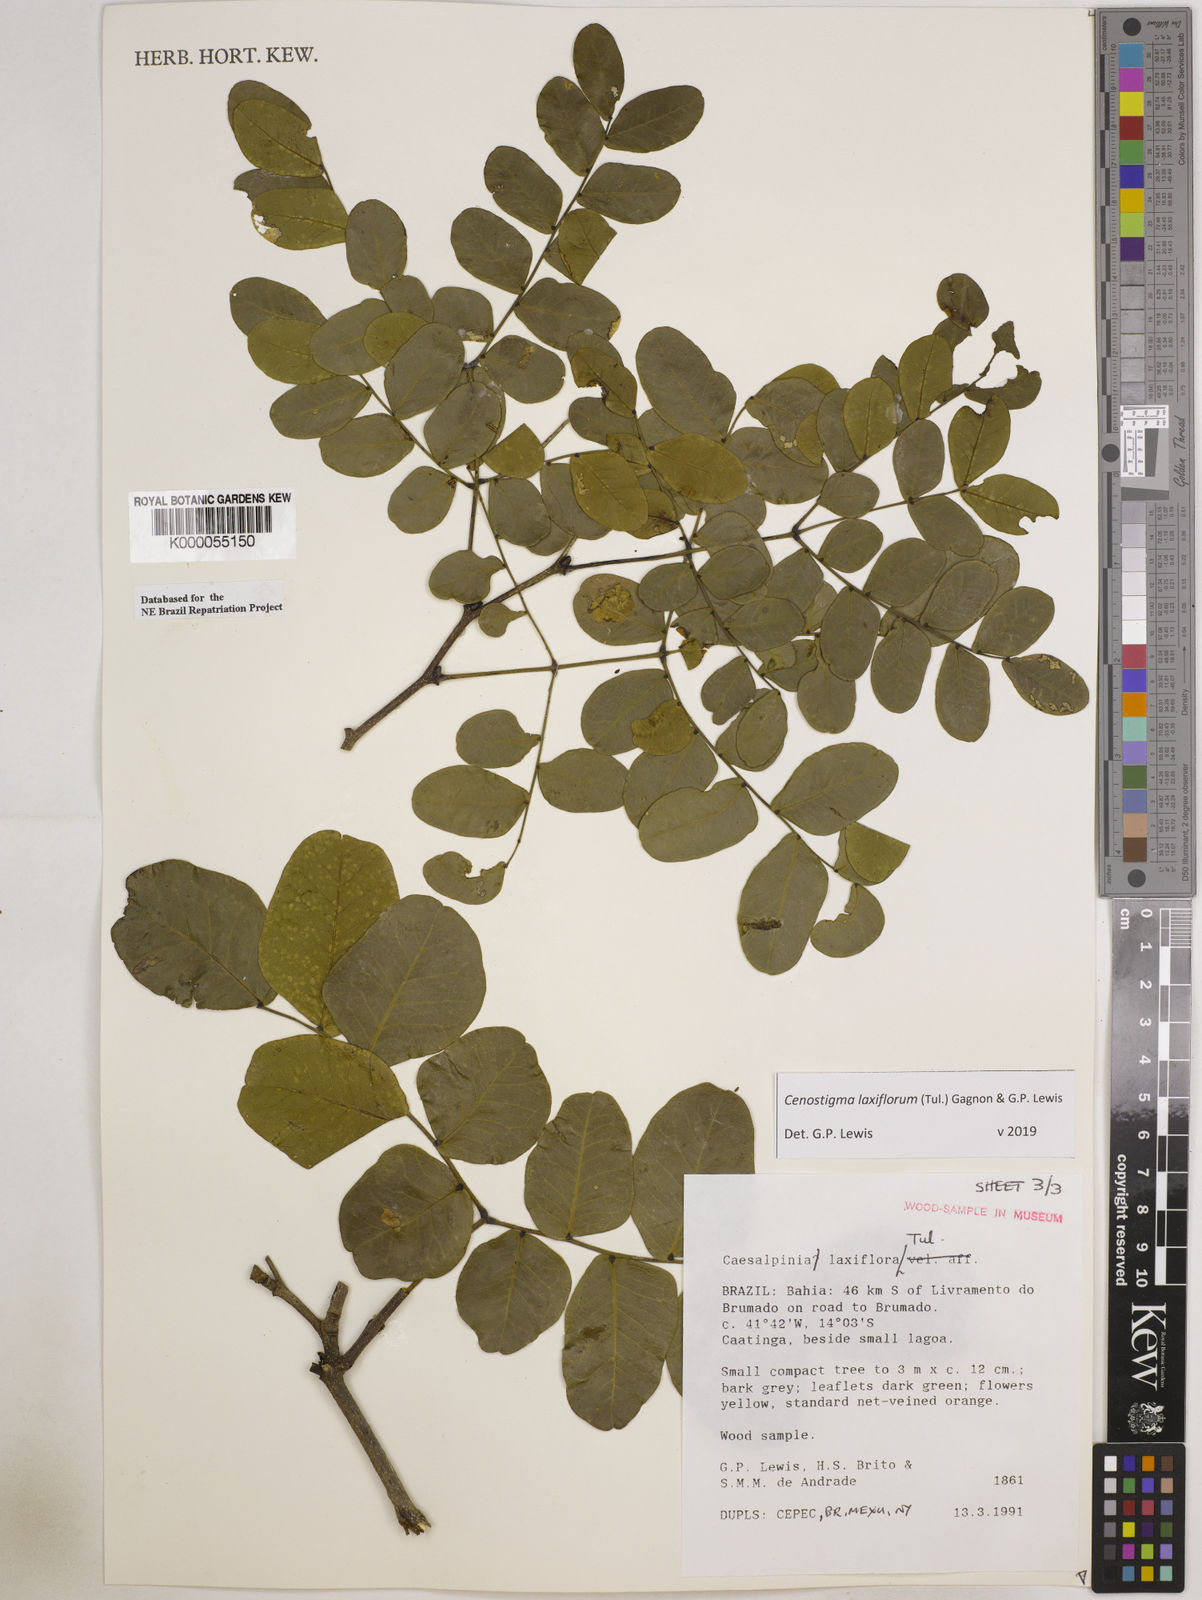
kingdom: Plantae
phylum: Tracheophyta
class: Magnoliopsida
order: Fabales
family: Fabaceae
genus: Cenostigma
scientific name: Cenostigma laxiflorum
